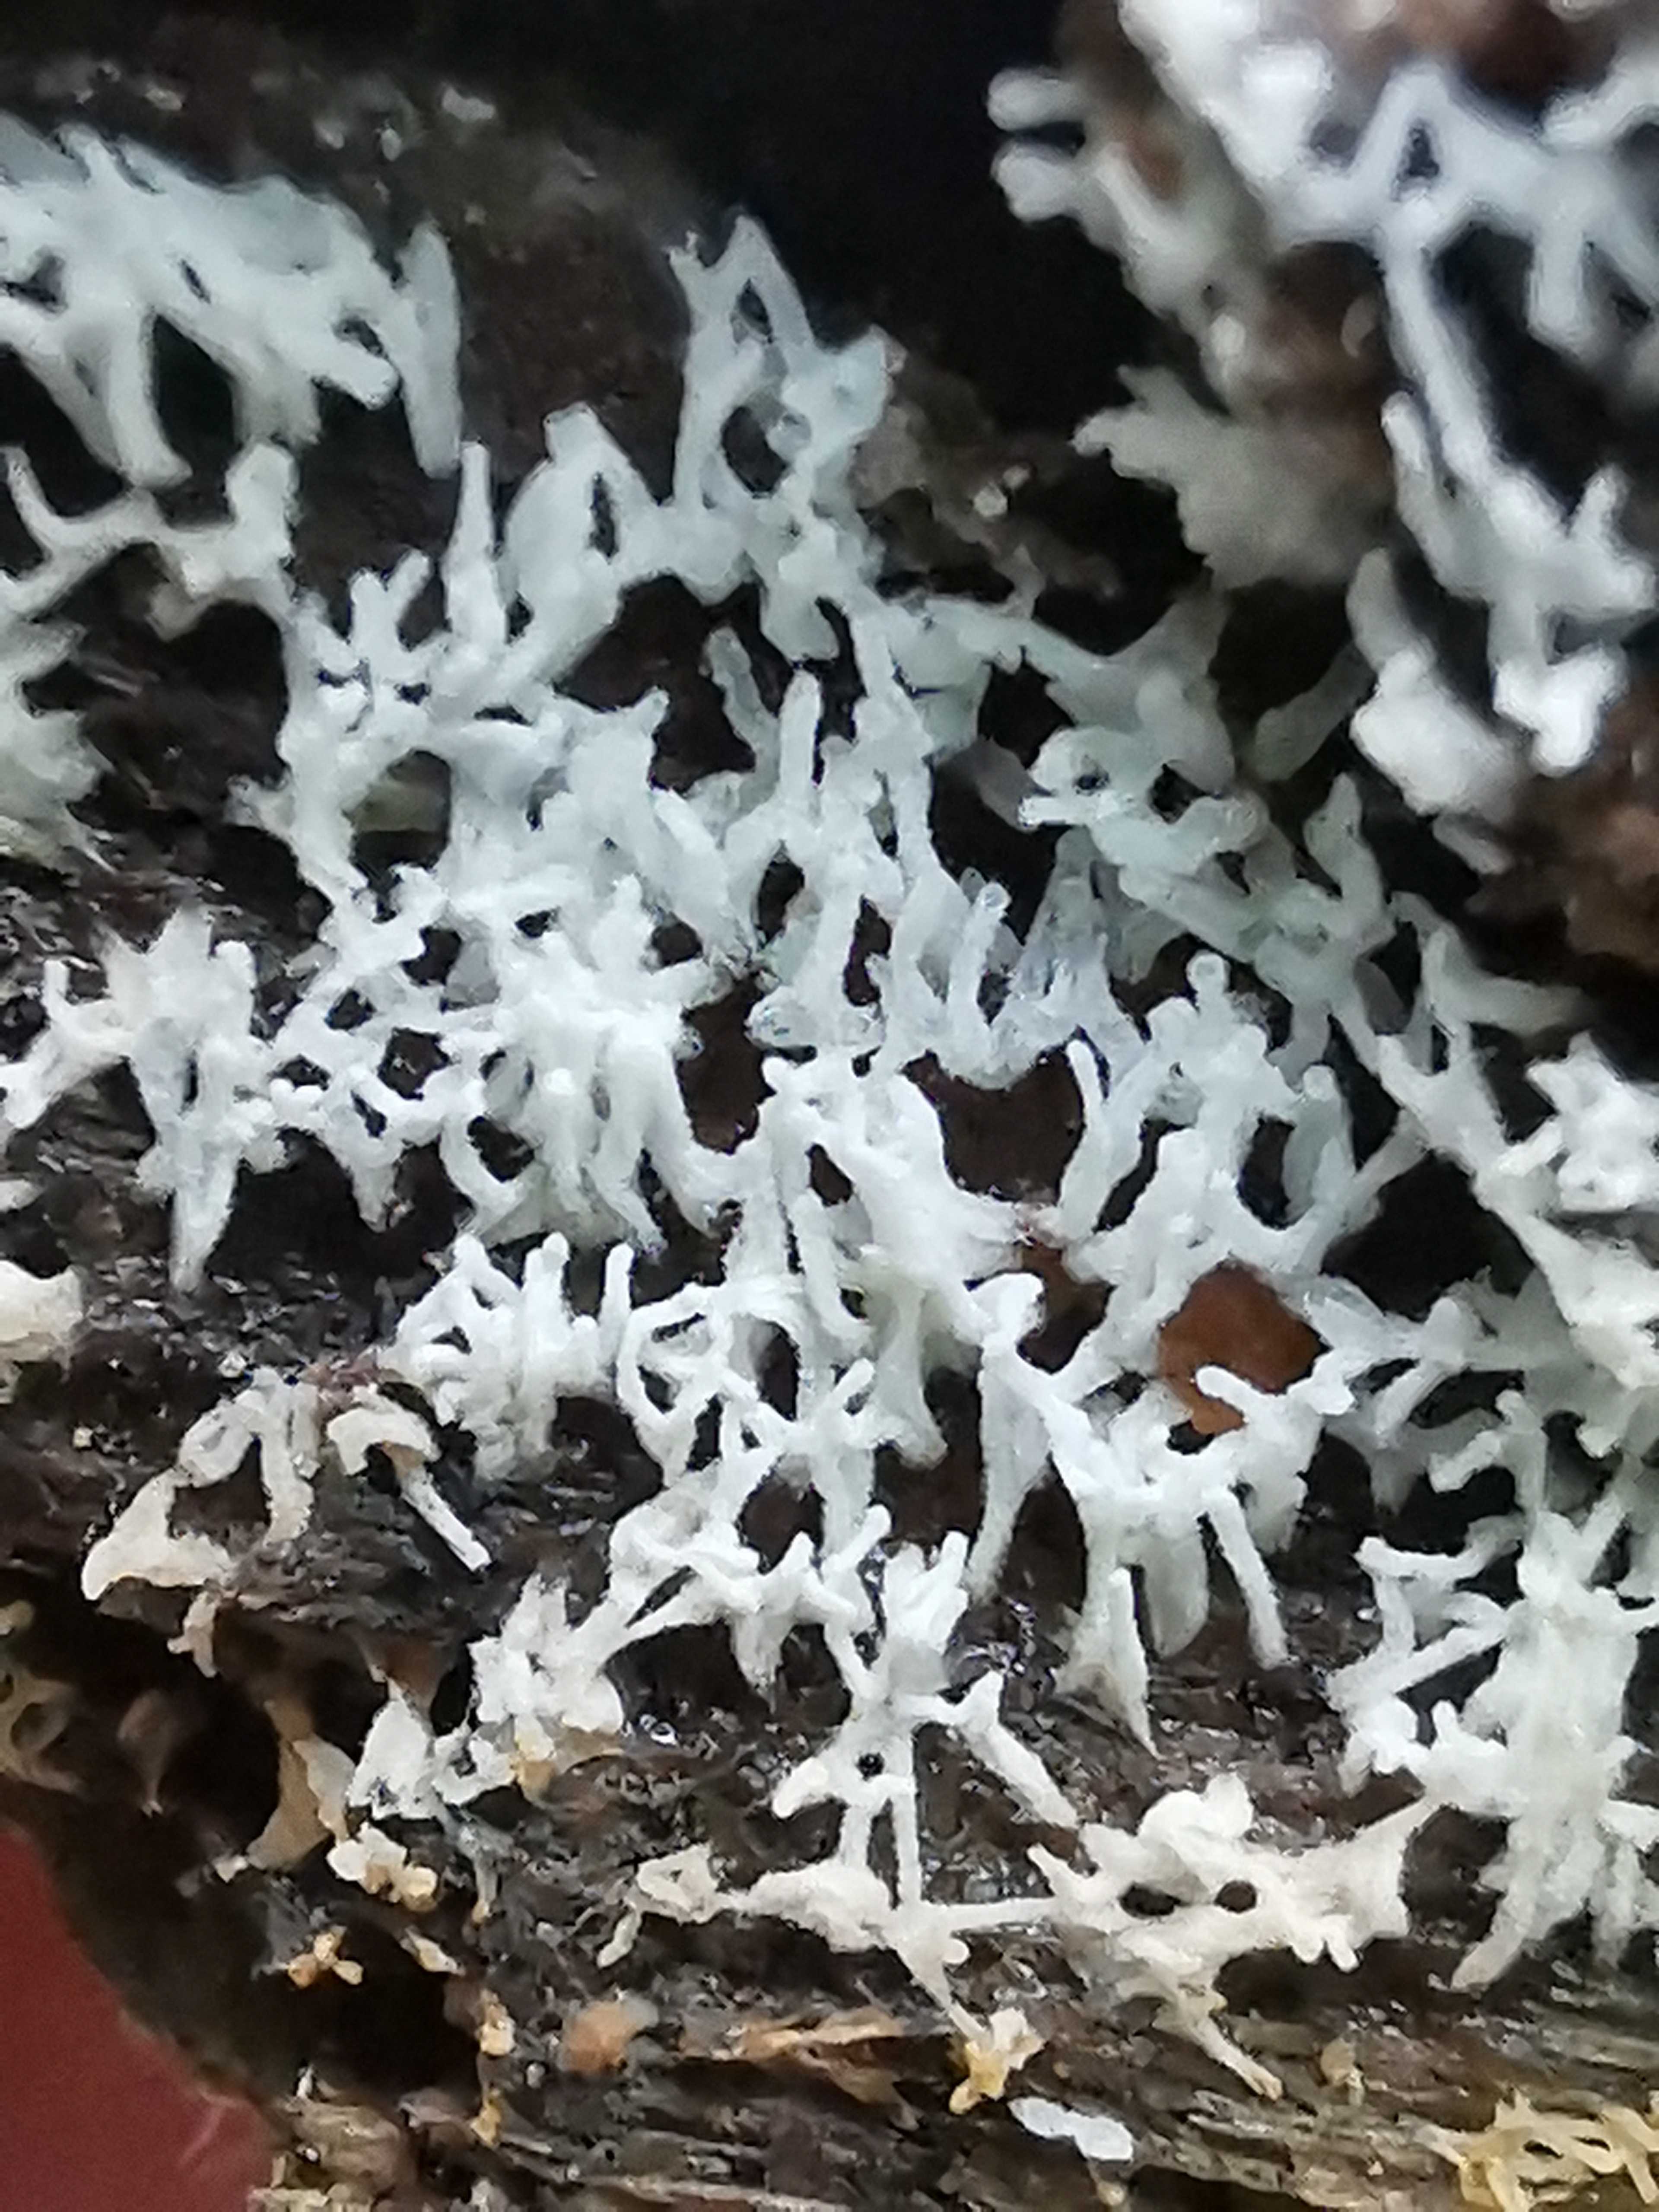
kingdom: Protozoa
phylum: Mycetozoa
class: Protosteliomycetes
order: Ceratiomyxales
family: Ceratiomyxaceae
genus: Ceratiomyxa
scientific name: Ceratiomyxa fruticulosa
